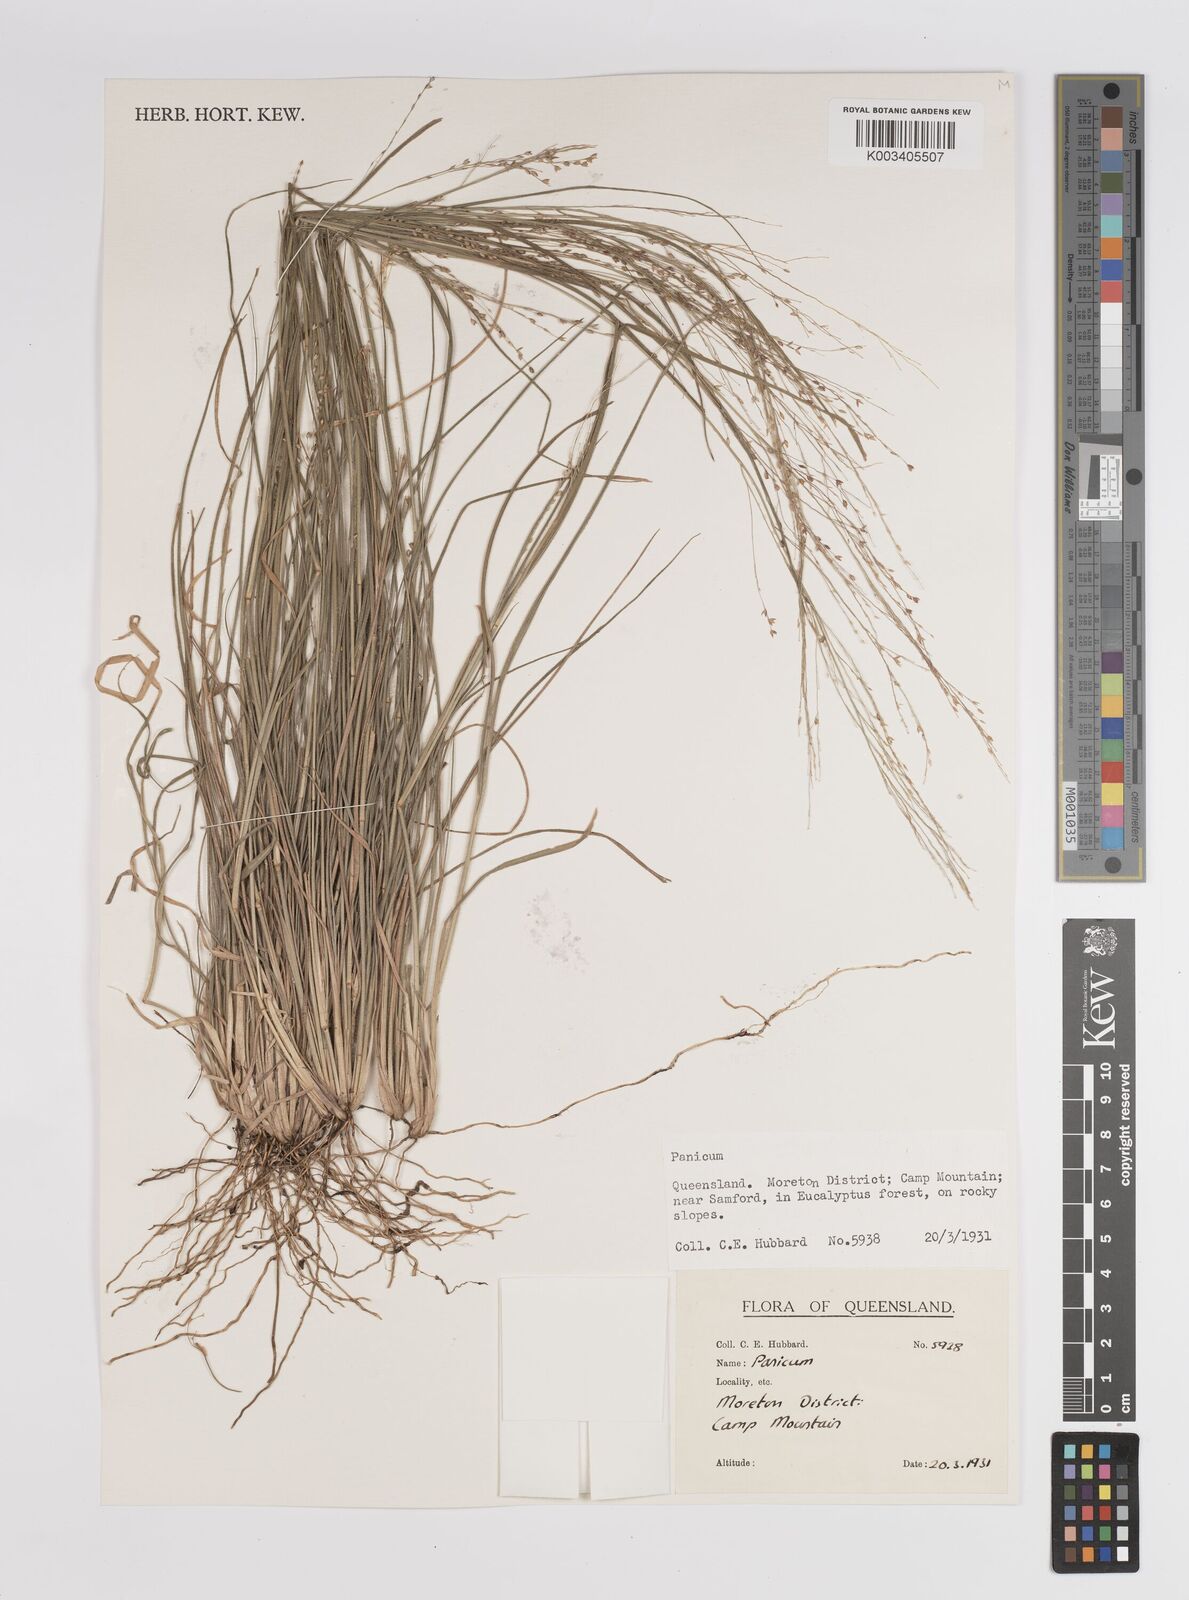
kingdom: Plantae
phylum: Tracheophyta
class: Liliopsida
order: Poales
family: Poaceae
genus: Panicum
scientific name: Panicum
